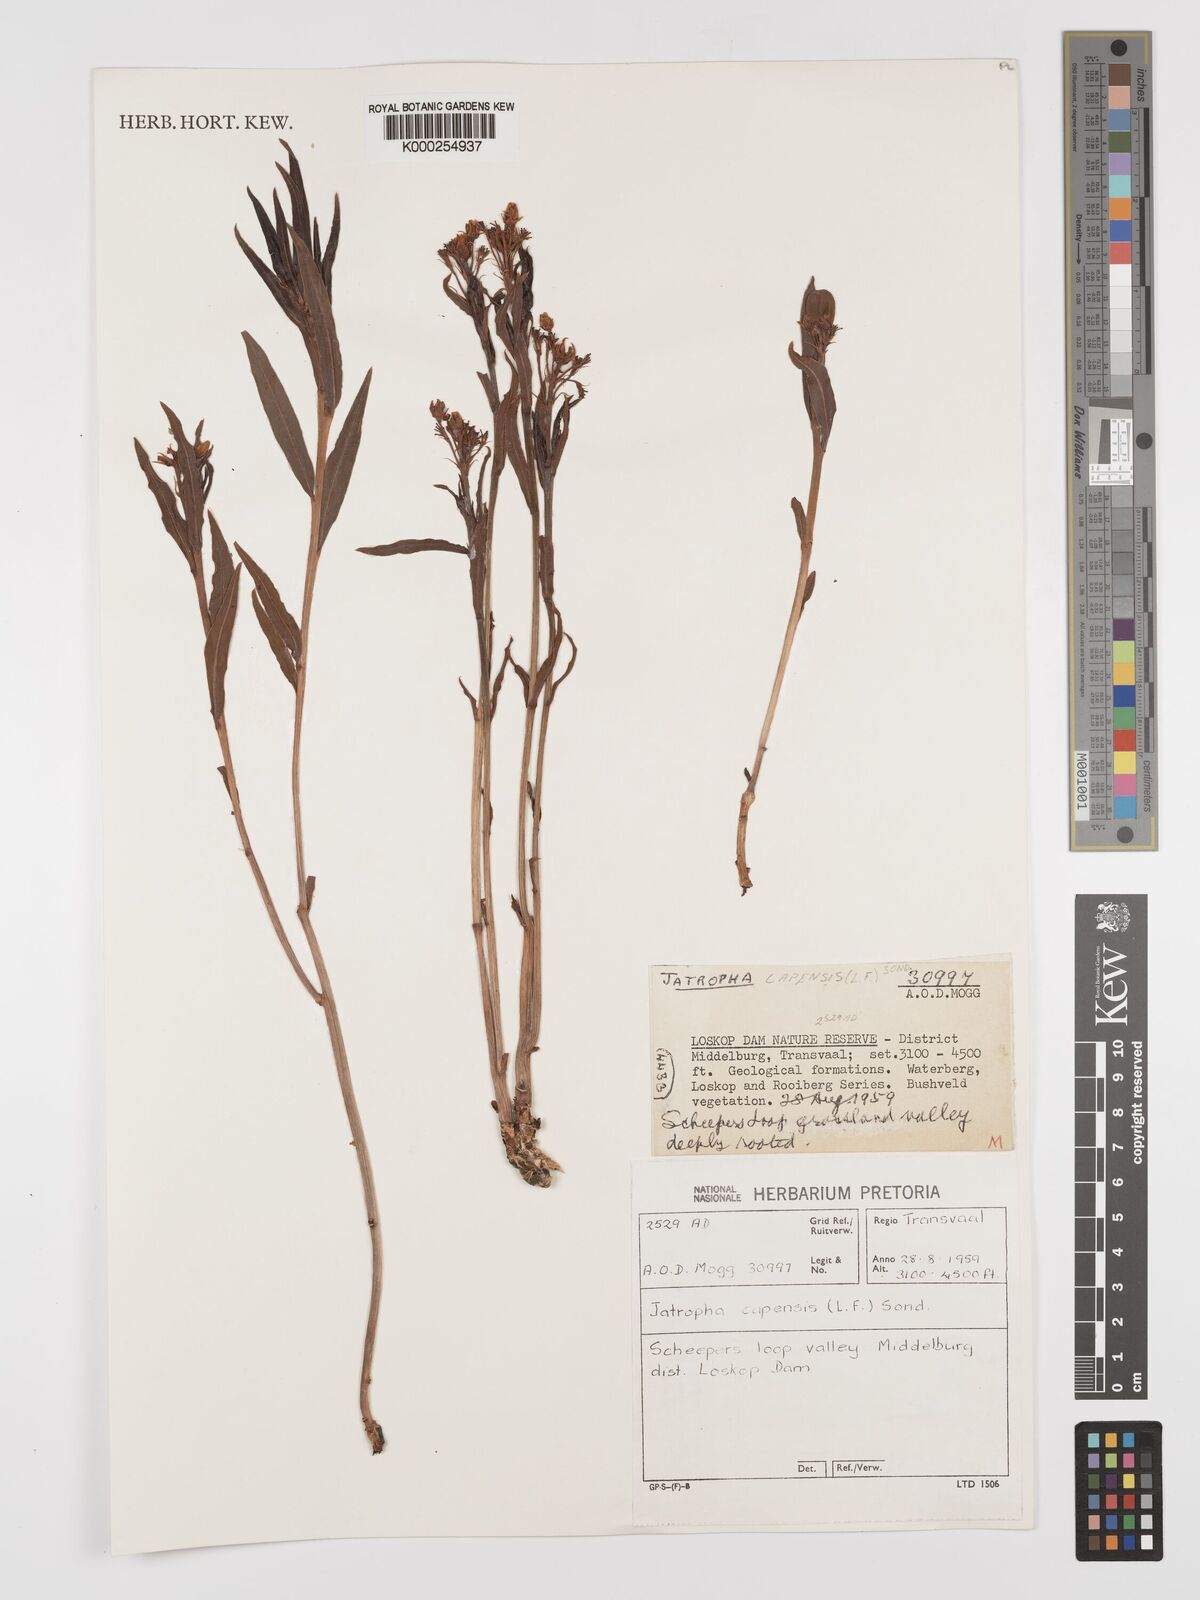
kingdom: Plantae
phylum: Tracheophyta
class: Magnoliopsida
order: Malpighiales
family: Euphorbiaceae
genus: Jatropha
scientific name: Jatropha capensis
